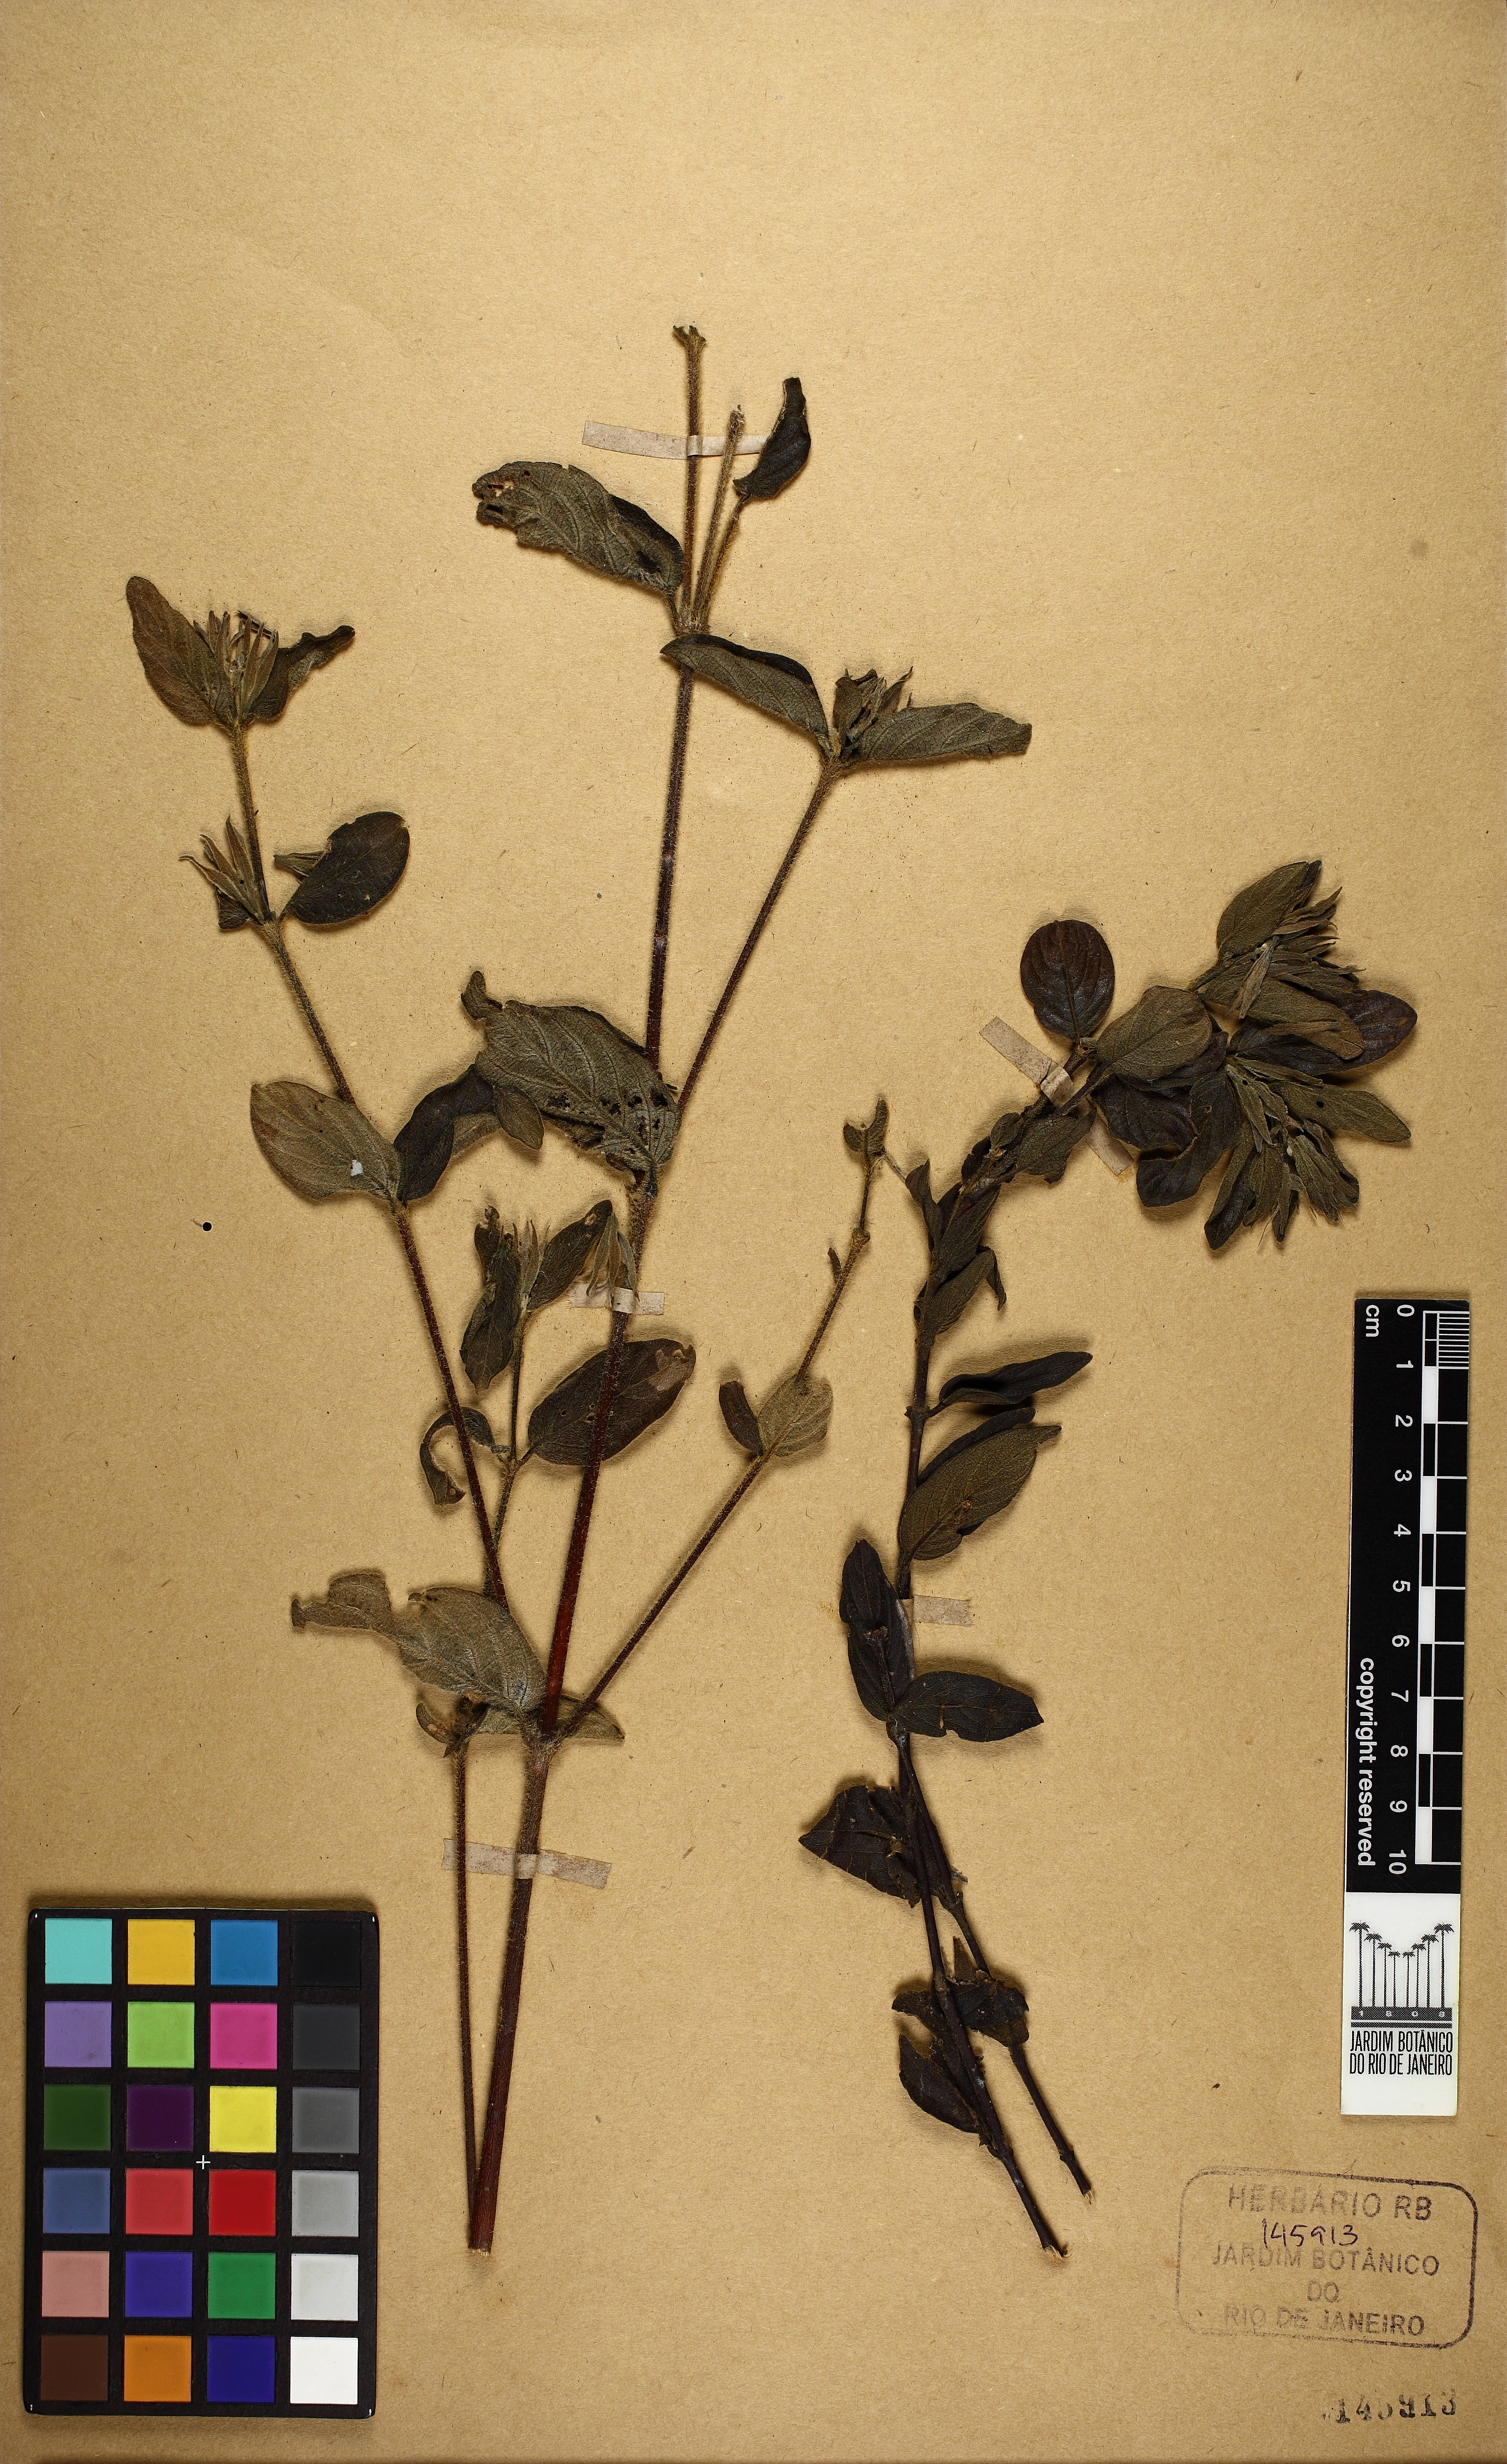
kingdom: Plantae
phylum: Tracheophyta
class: Magnoliopsida
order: Lamiales
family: Acanthaceae
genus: Ruellia
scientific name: Ruellia hapalotricha
